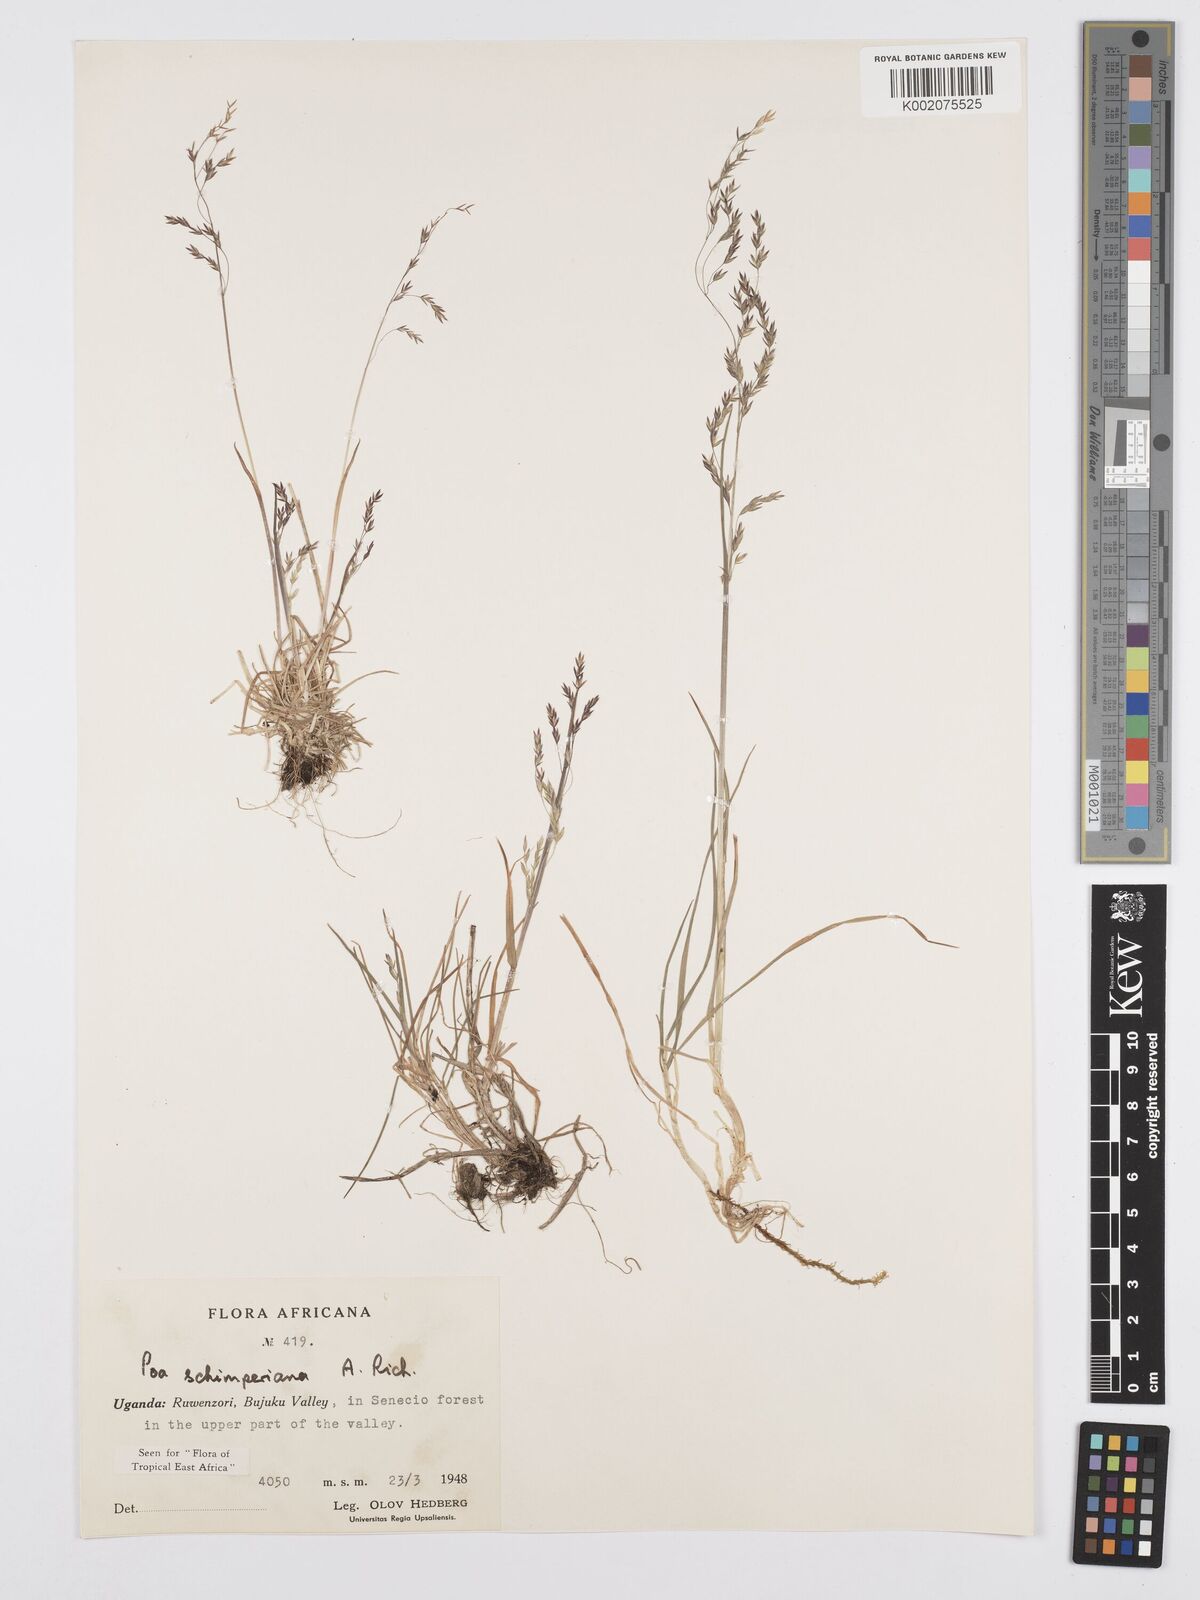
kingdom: Plantae
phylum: Tracheophyta
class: Liliopsida
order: Poales
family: Poaceae
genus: Poa
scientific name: Poa schimperiana
